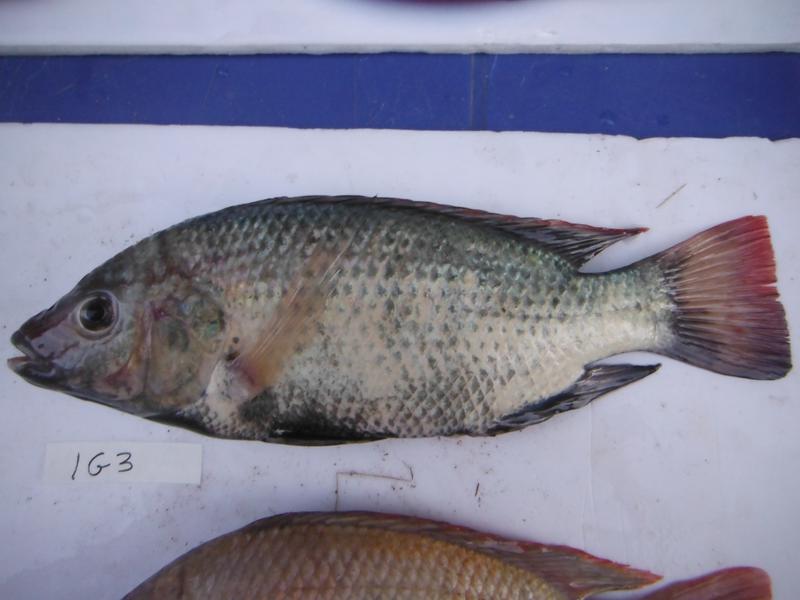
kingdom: Animalia
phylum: Chordata
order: Perciformes
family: Cichlidae
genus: Oreochromis
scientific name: Oreochromis rukwaensis
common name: Lake rukwa tilapia
